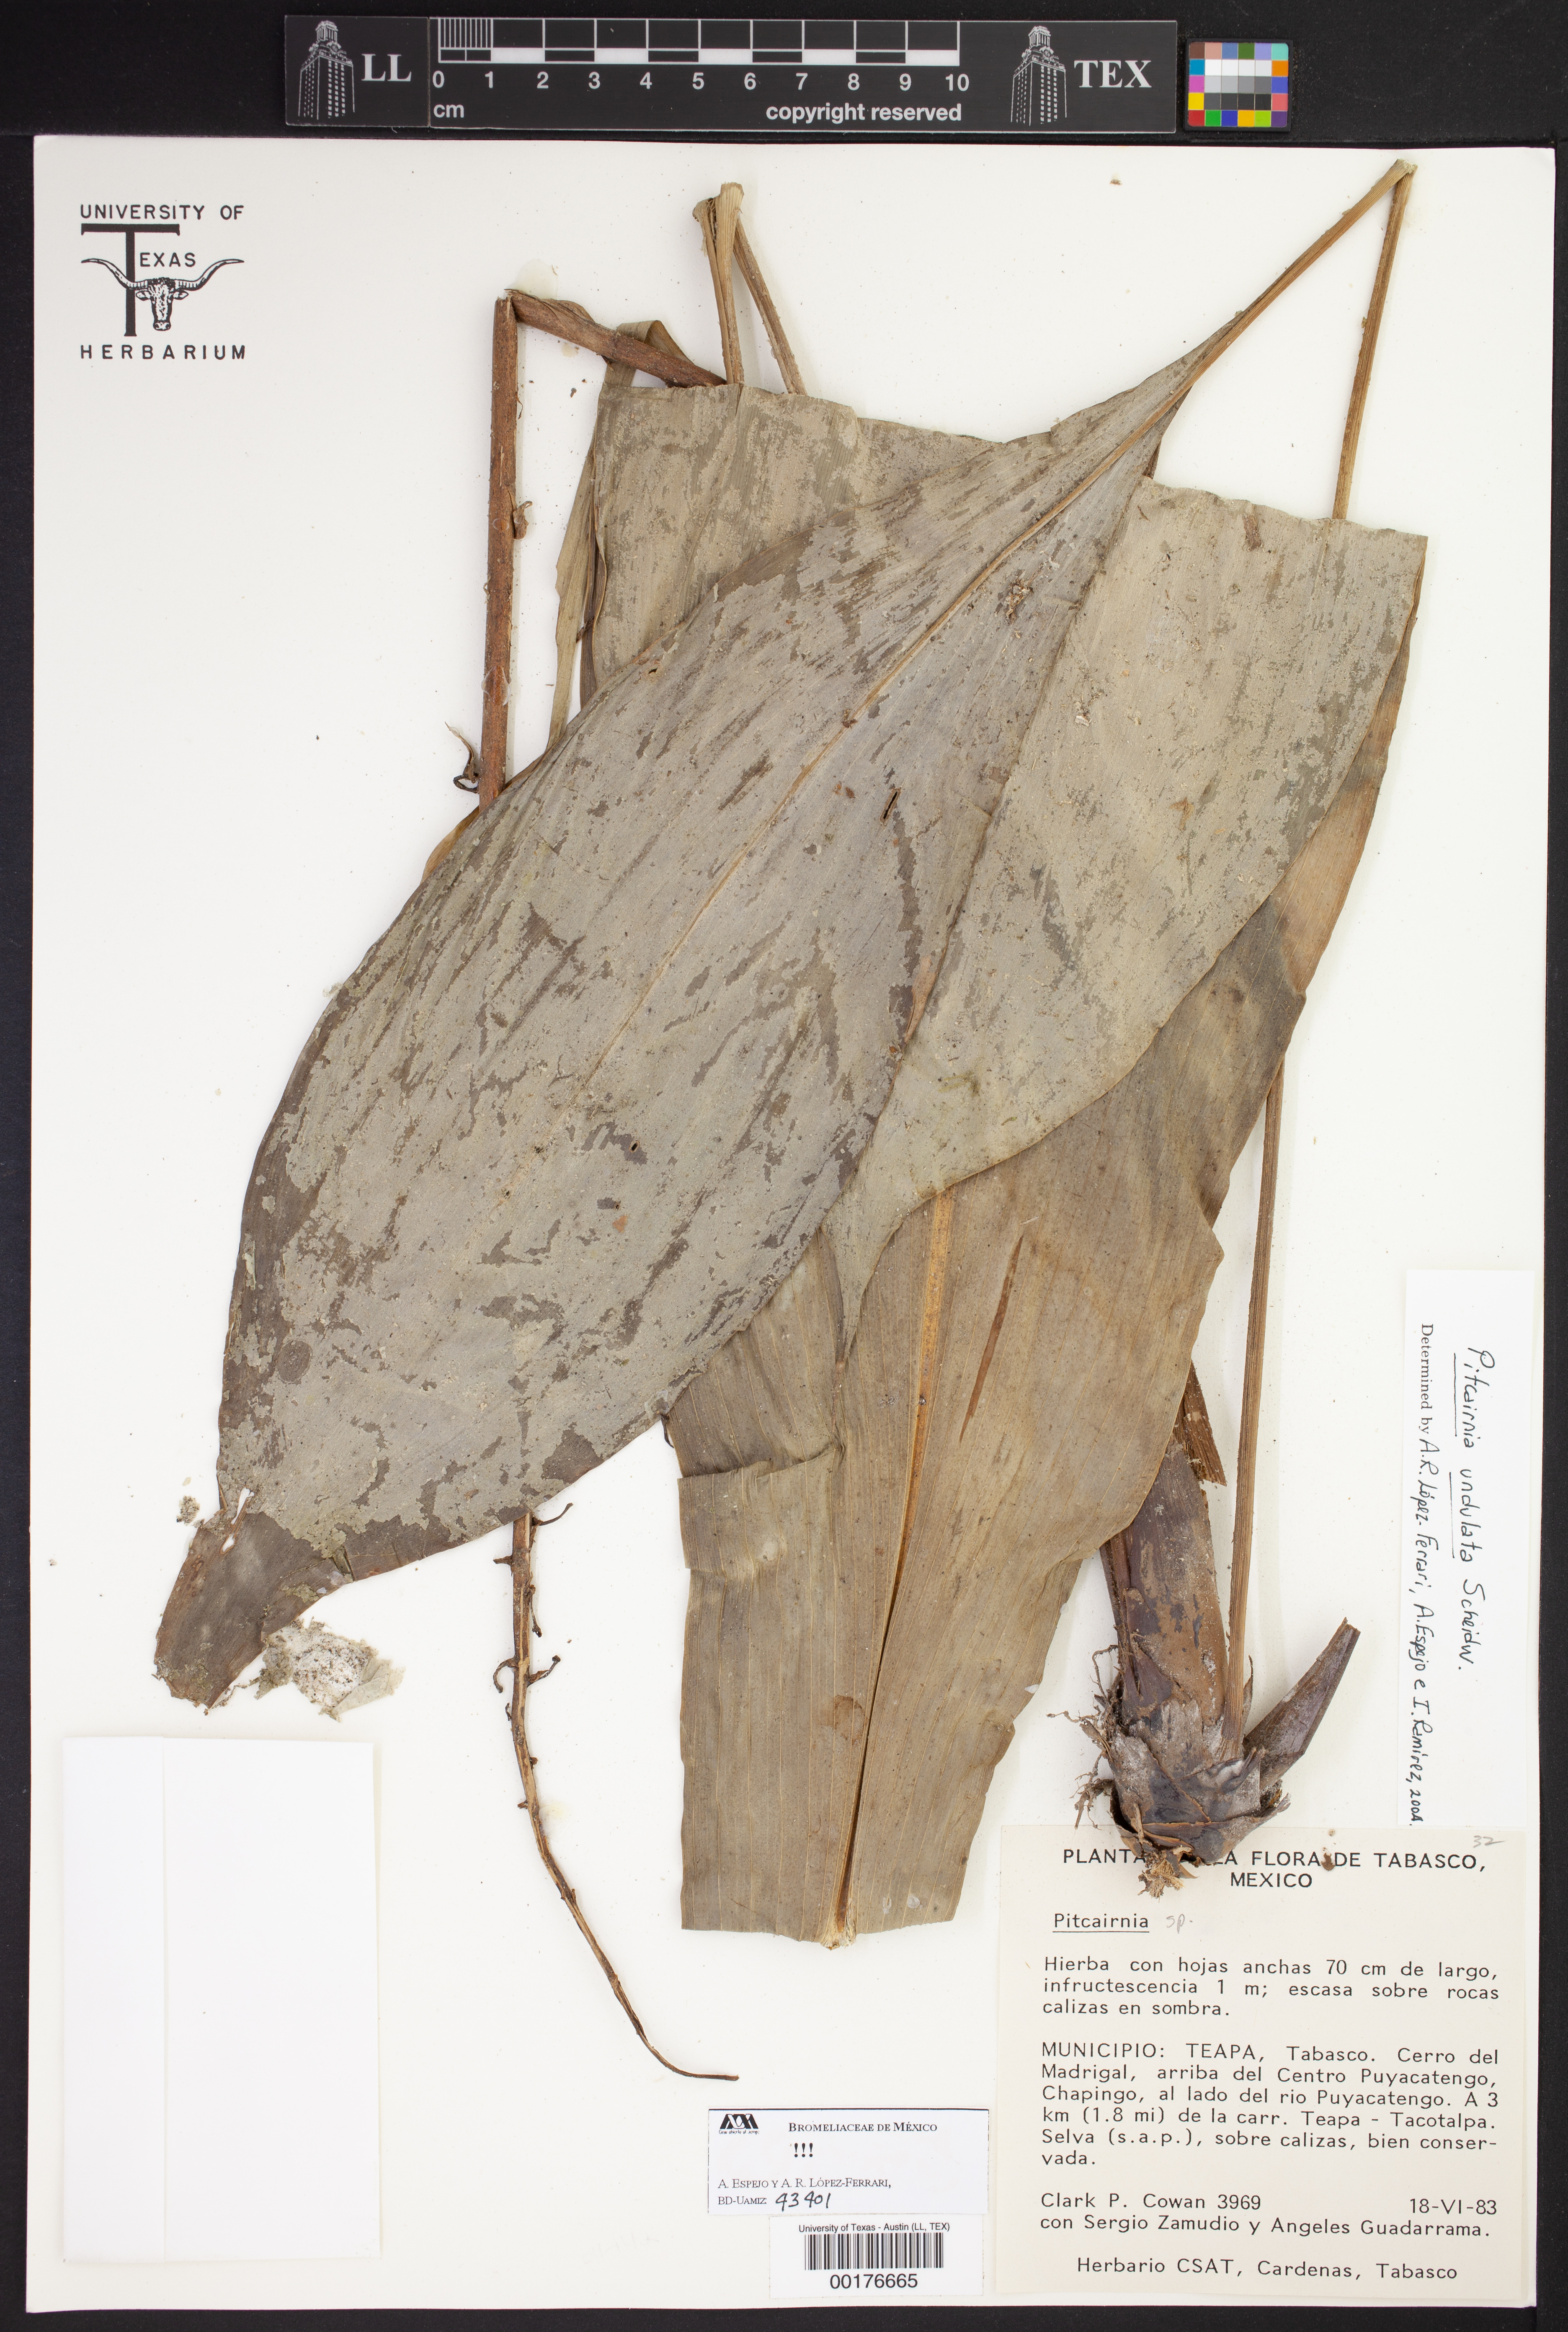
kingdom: Plantae
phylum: Tracheophyta
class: Liliopsida
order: Poales
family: Bromeliaceae
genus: Pitcairnia
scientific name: Pitcairnia
